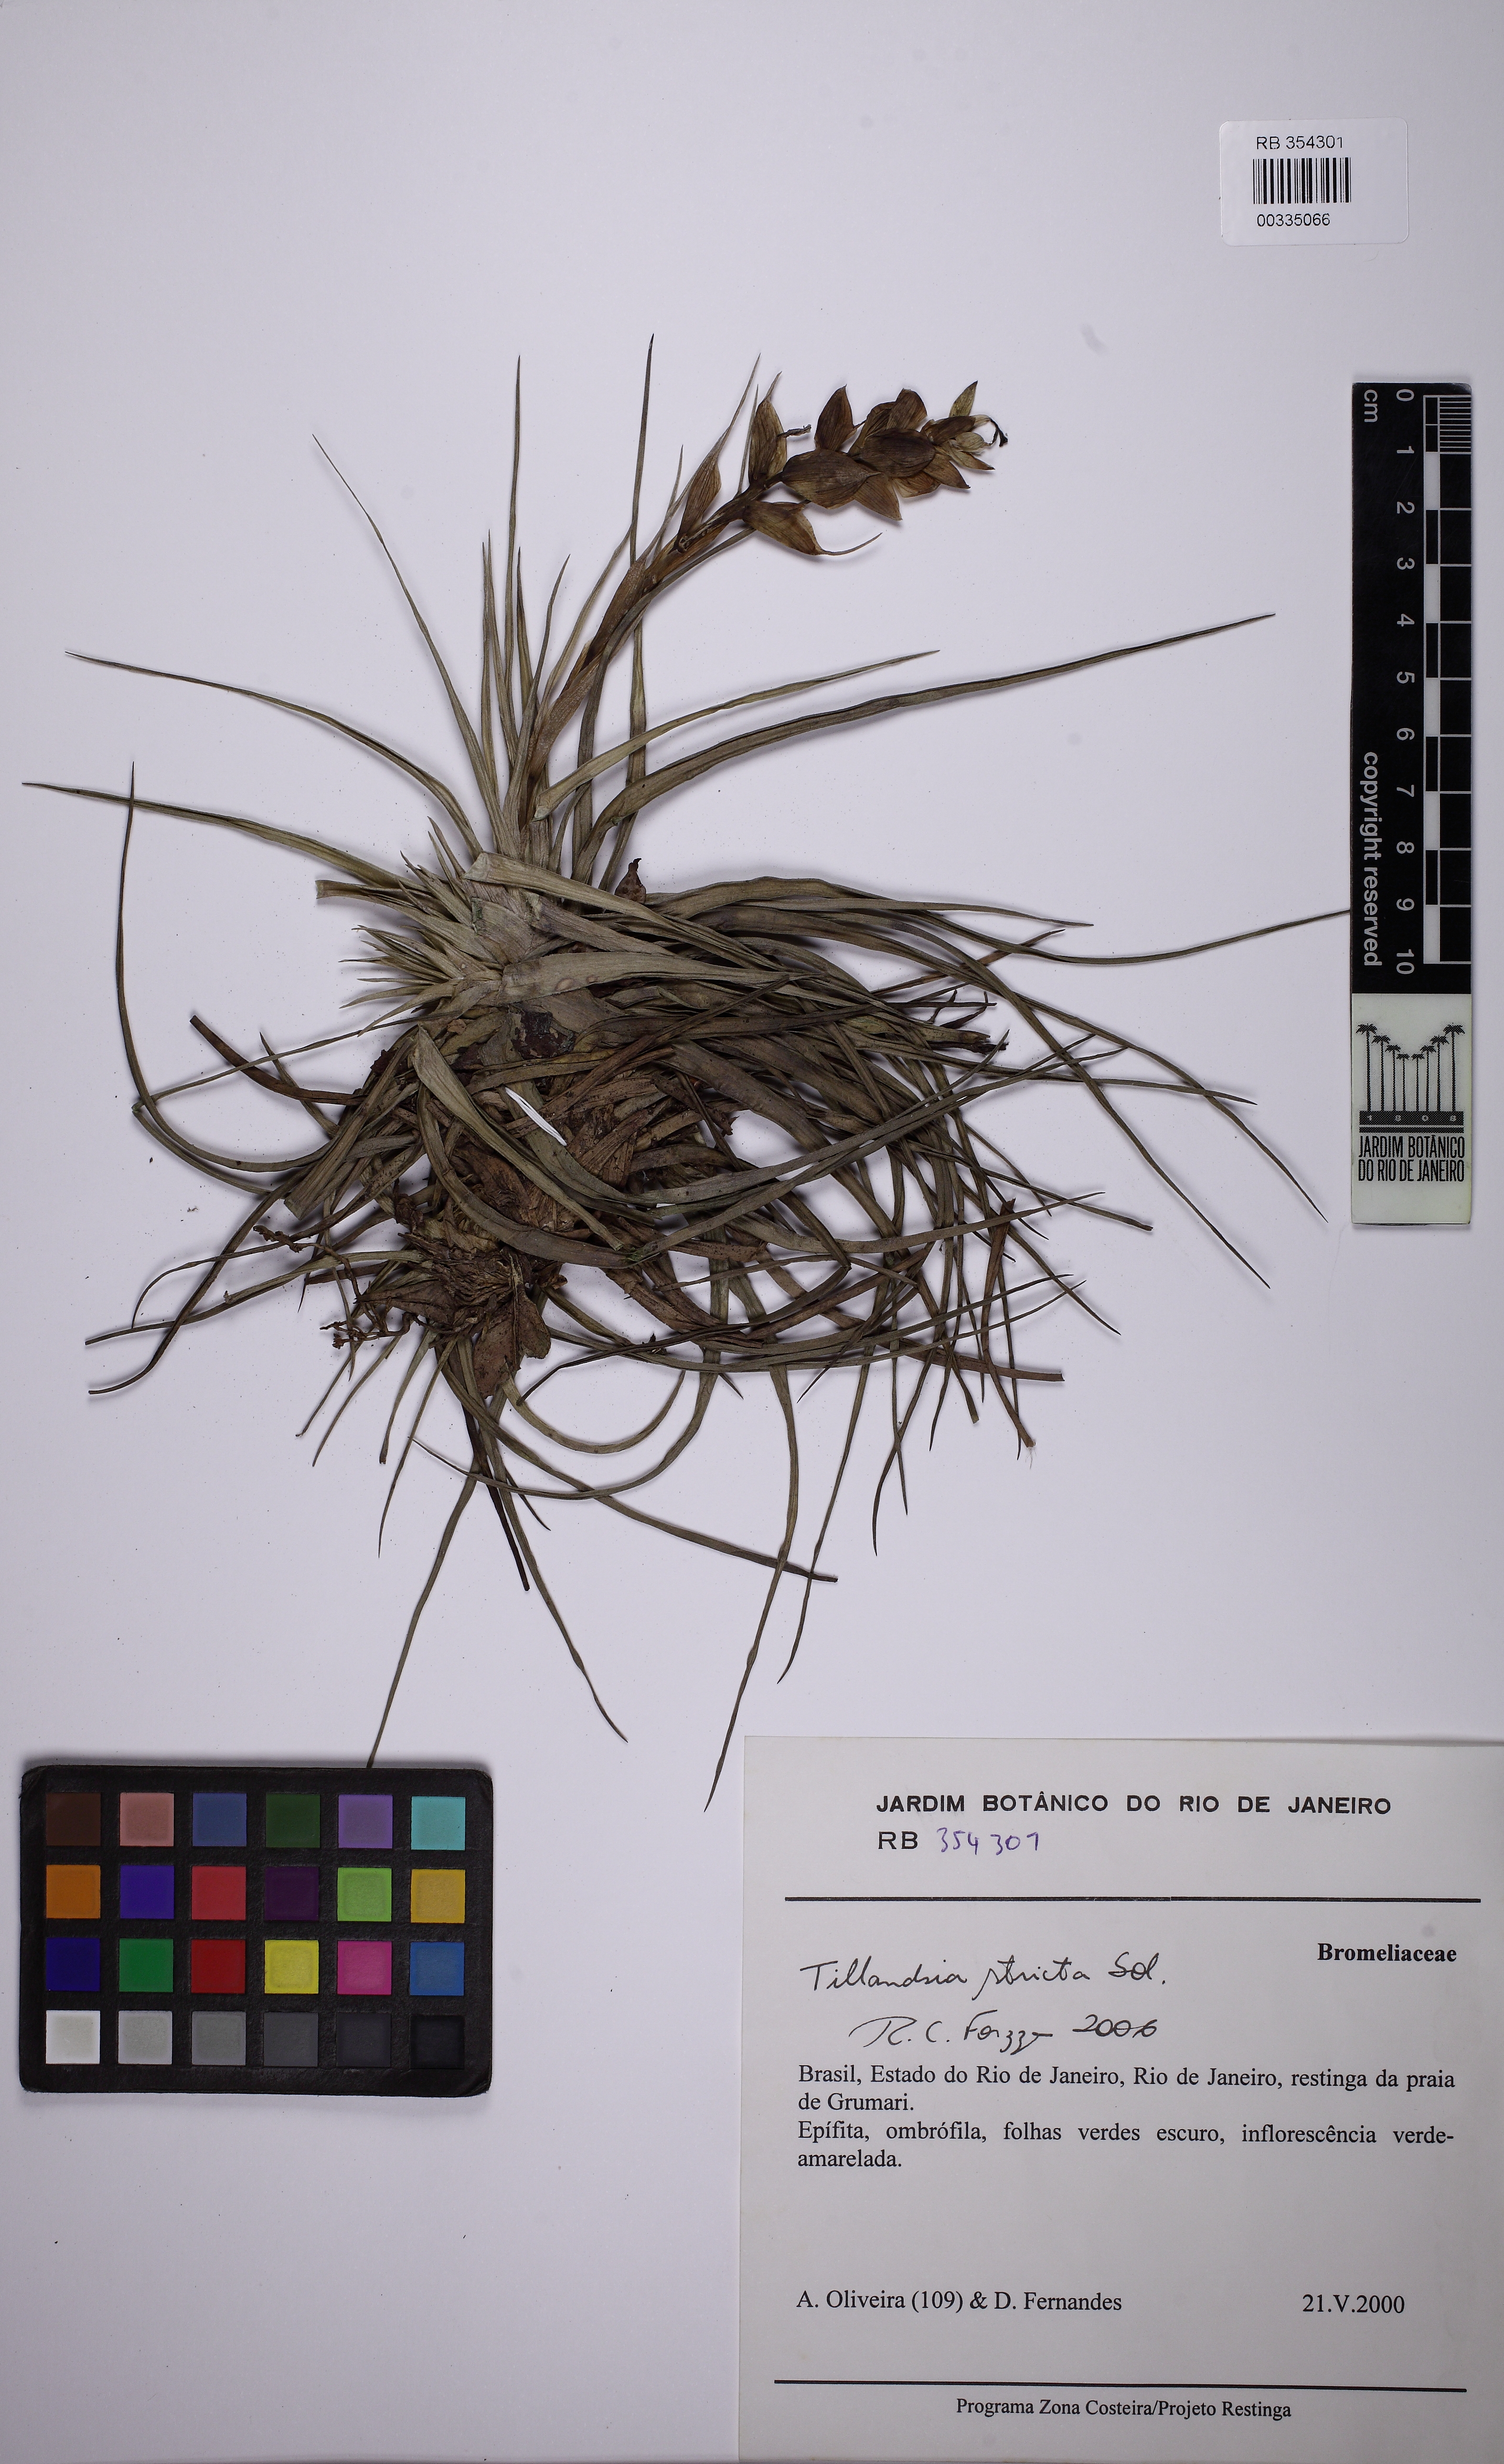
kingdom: Plantae
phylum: Tracheophyta
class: Liliopsida
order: Poales
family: Bromeliaceae
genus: Tillandsia
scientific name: Tillandsia stricta
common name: Airplant
